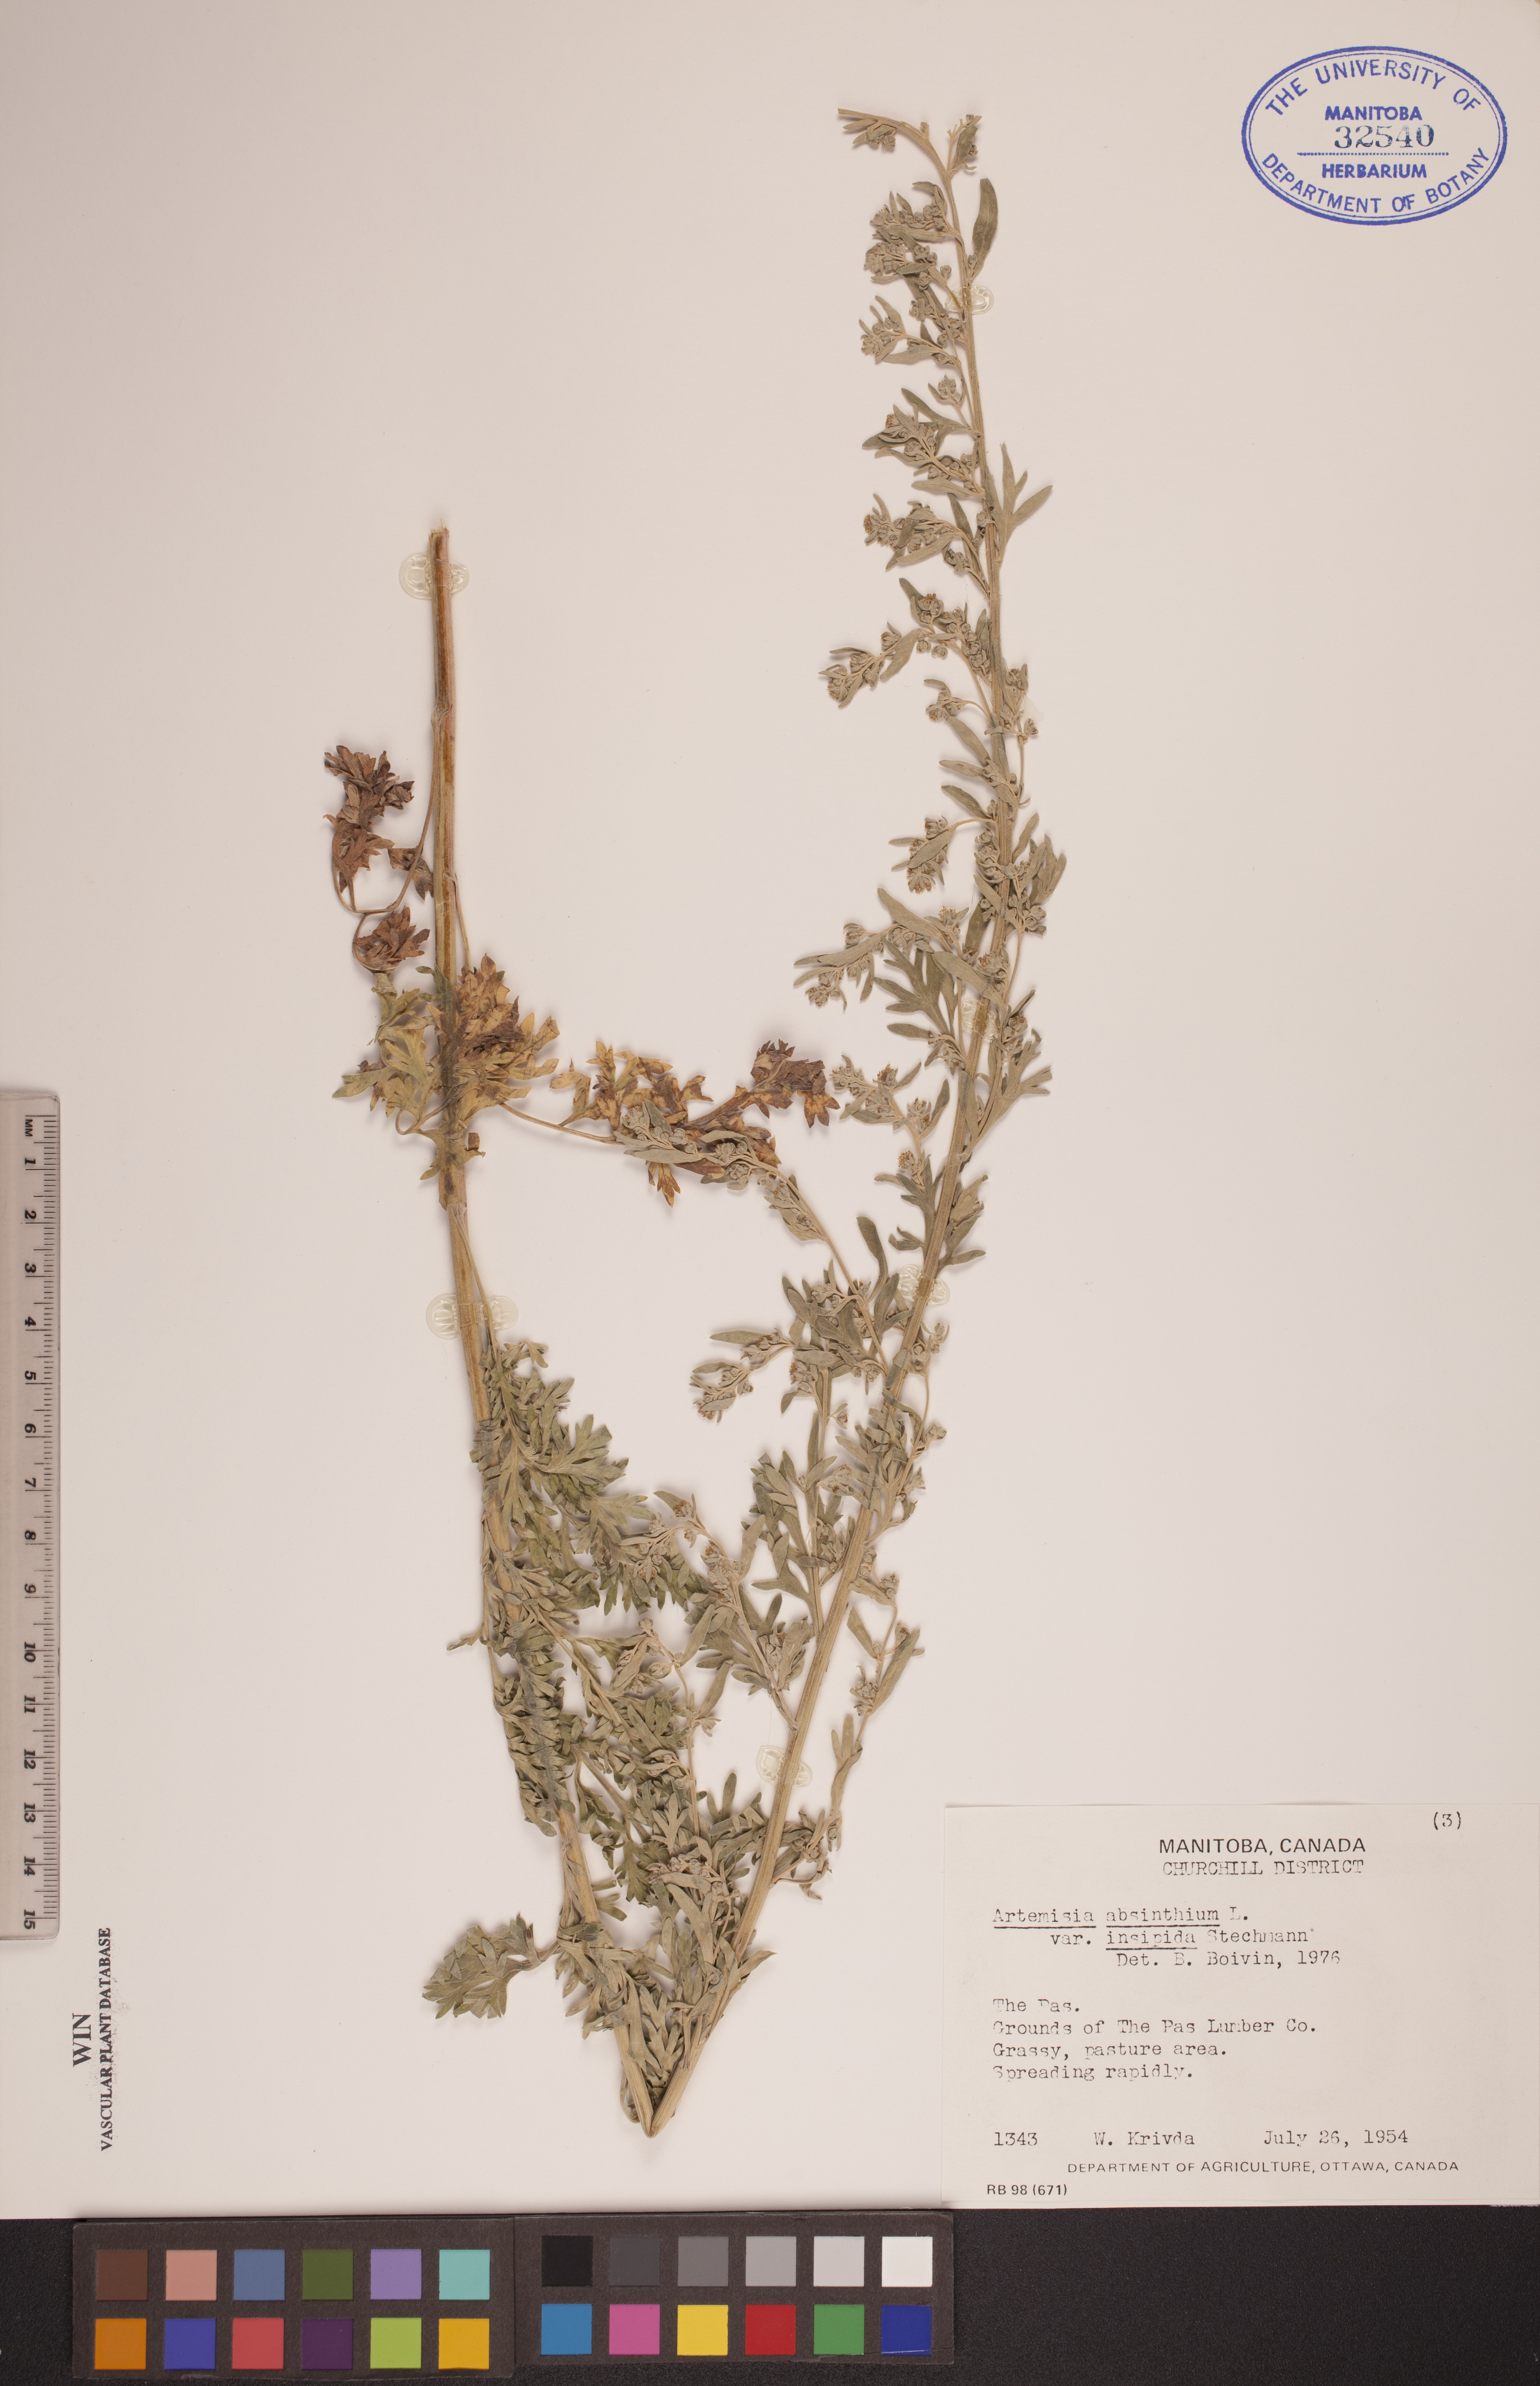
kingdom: Plantae
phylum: Tracheophyta
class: Magnoliopsida
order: Asterales
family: Asteraceae
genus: Artemisia
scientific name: Artemisia absinthium
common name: Wormwood
